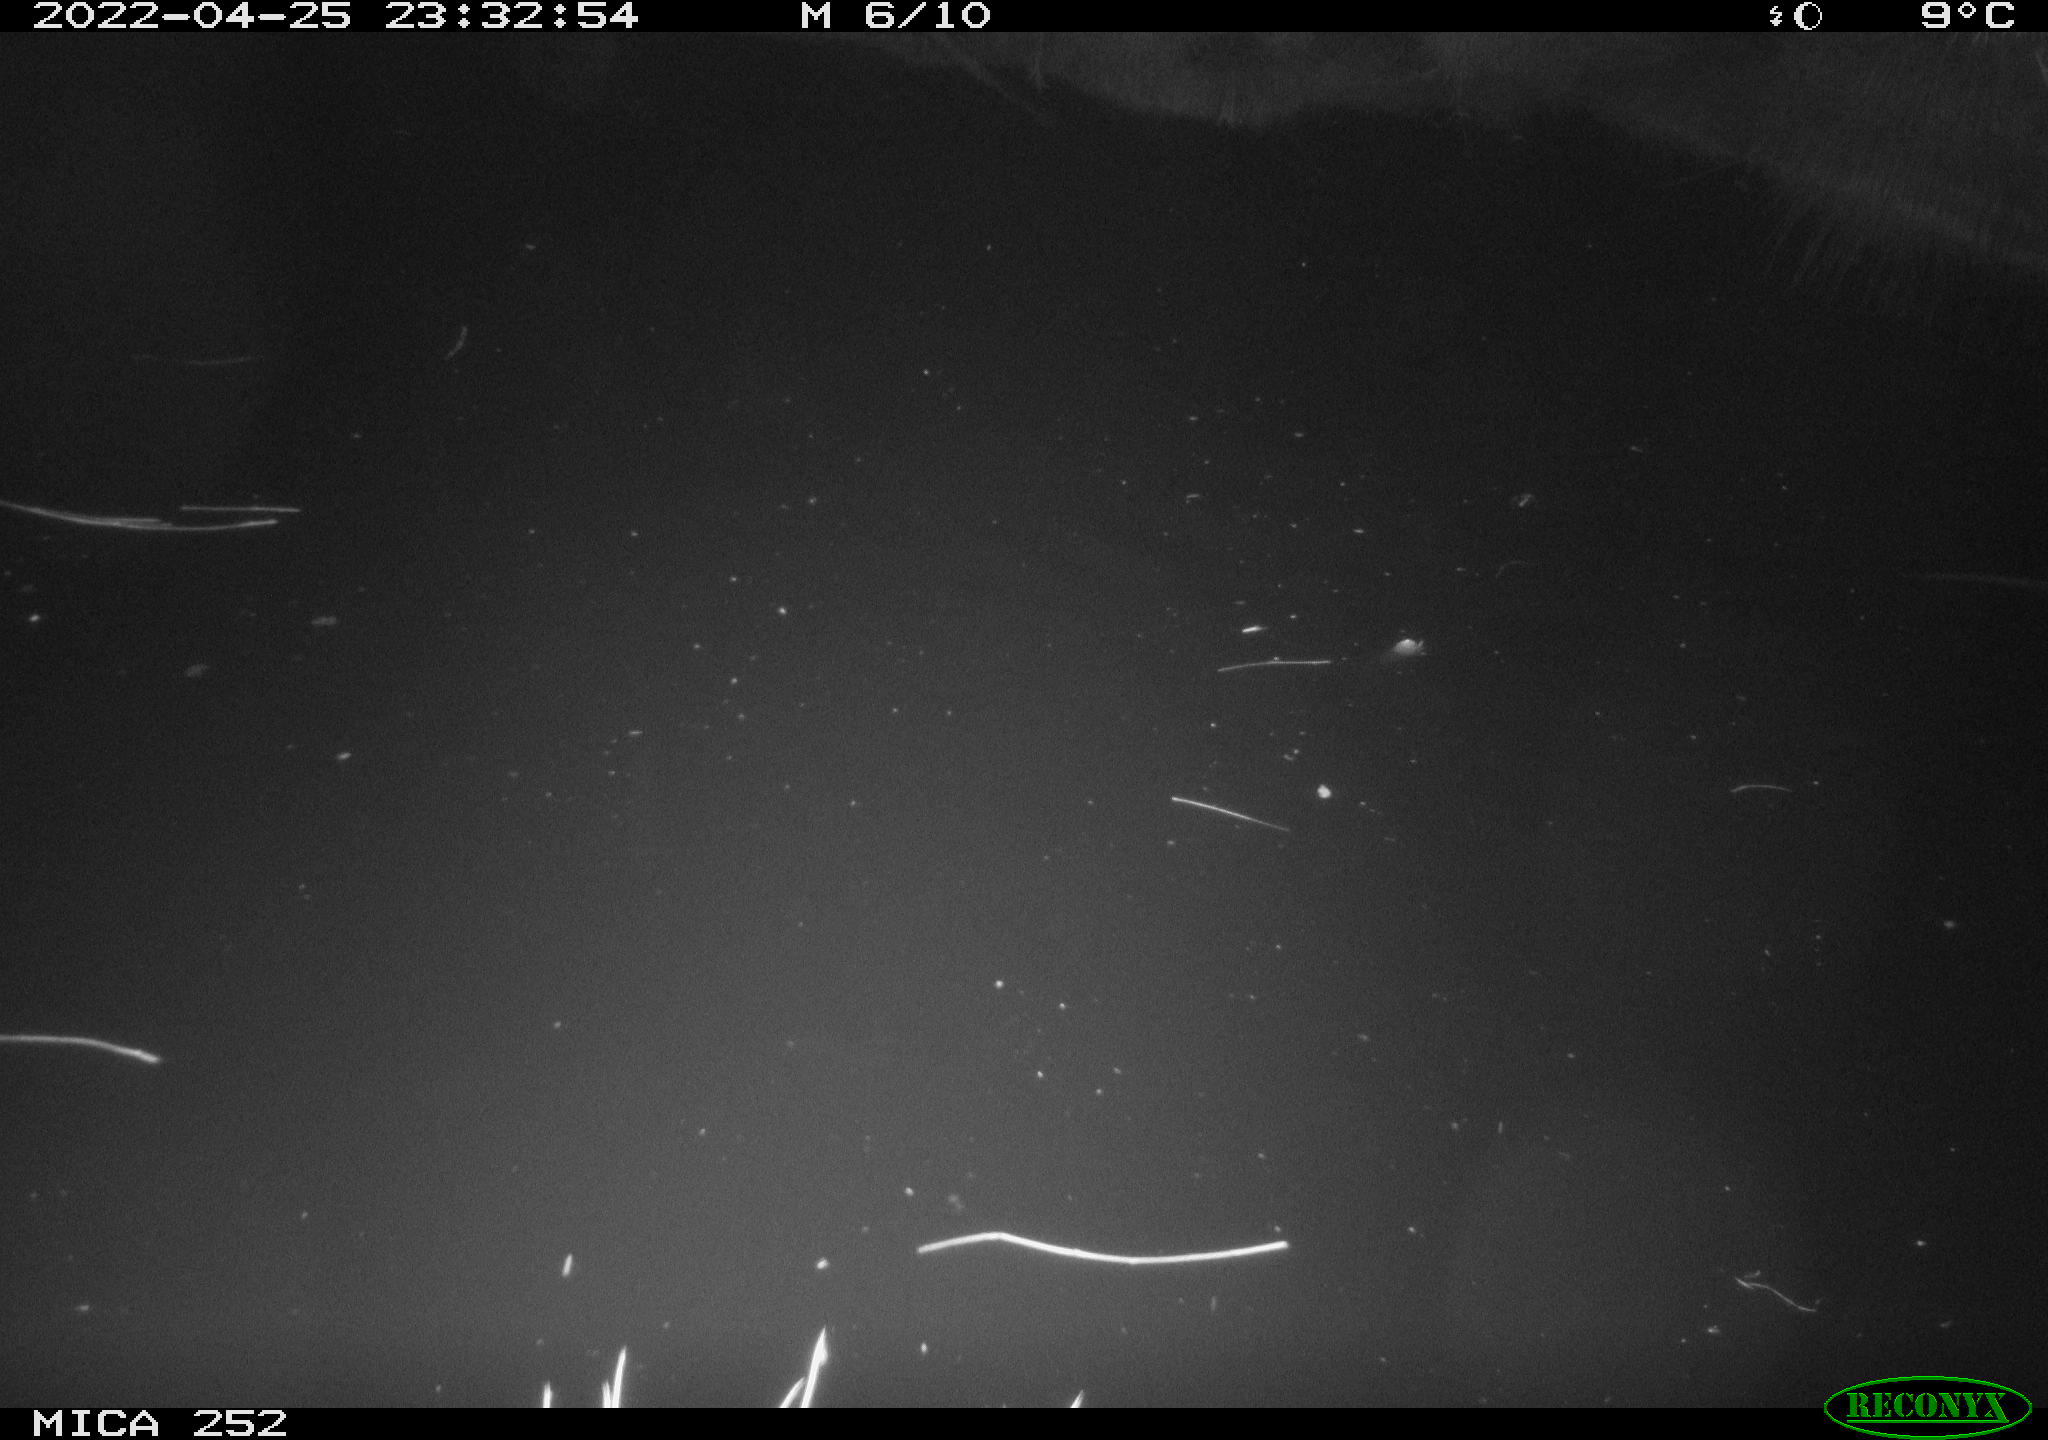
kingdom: Animalia
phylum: Chordata
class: Mammalia
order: Rodentia
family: Castoridae
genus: Castor
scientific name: Castor fiber
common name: Eurasian beaver
